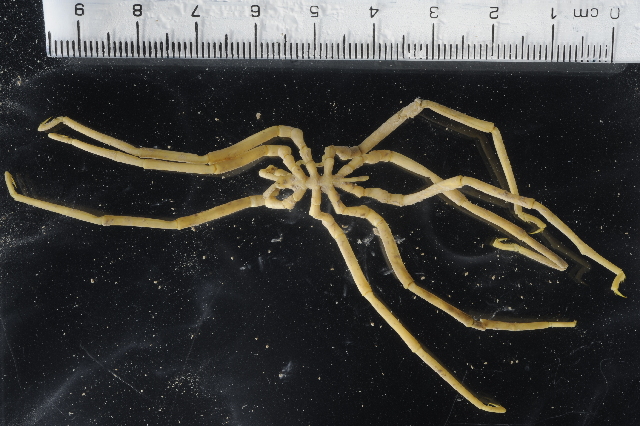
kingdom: Animalia
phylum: Arthropoda
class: Pycnogonida
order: Pantopoda
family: Pallenopsidae
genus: Pallenopsis
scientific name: Pallenopsis latefrontalis
